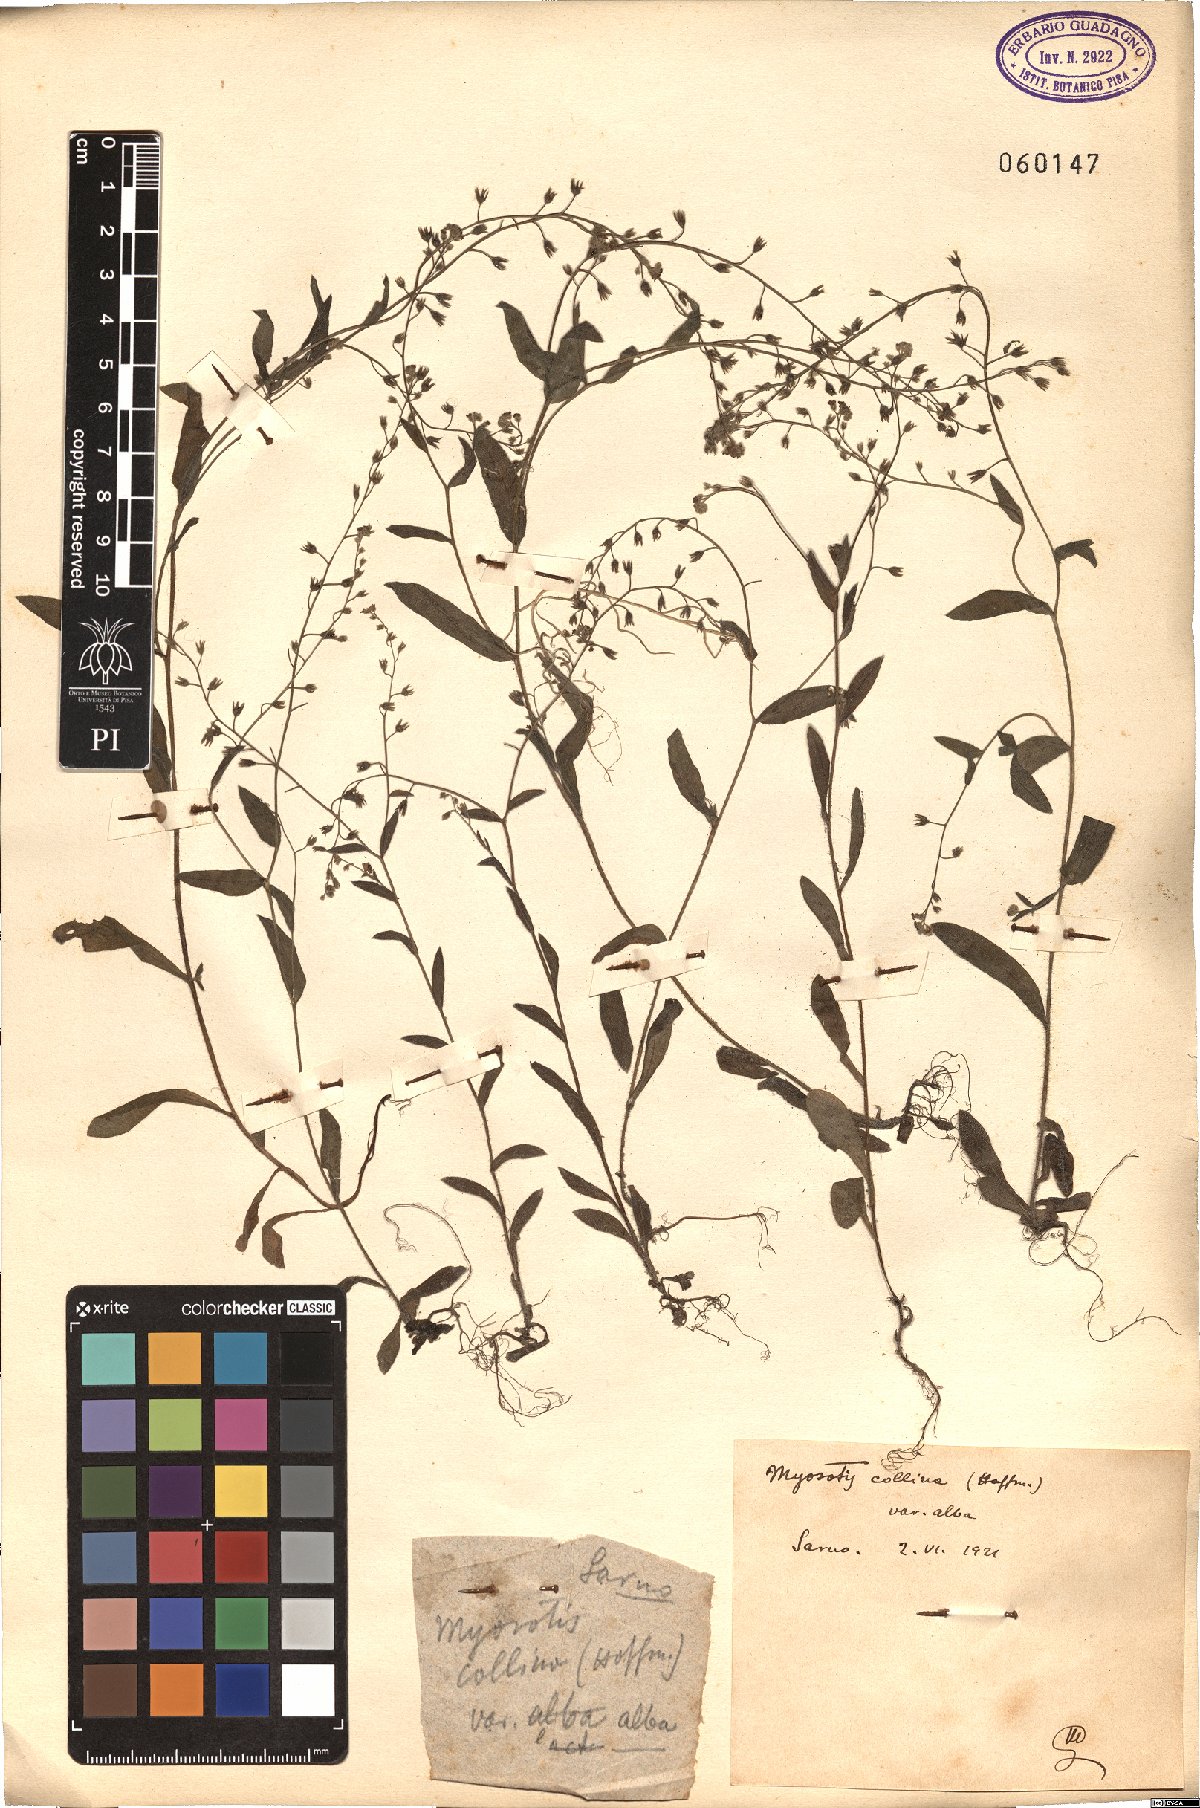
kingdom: Plantae
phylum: Tracheophyta
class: Magnoliopsida
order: Boraginales
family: Boraginaceae
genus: Myosotis
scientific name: Myosotis discolor
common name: Changing forget-me-not
